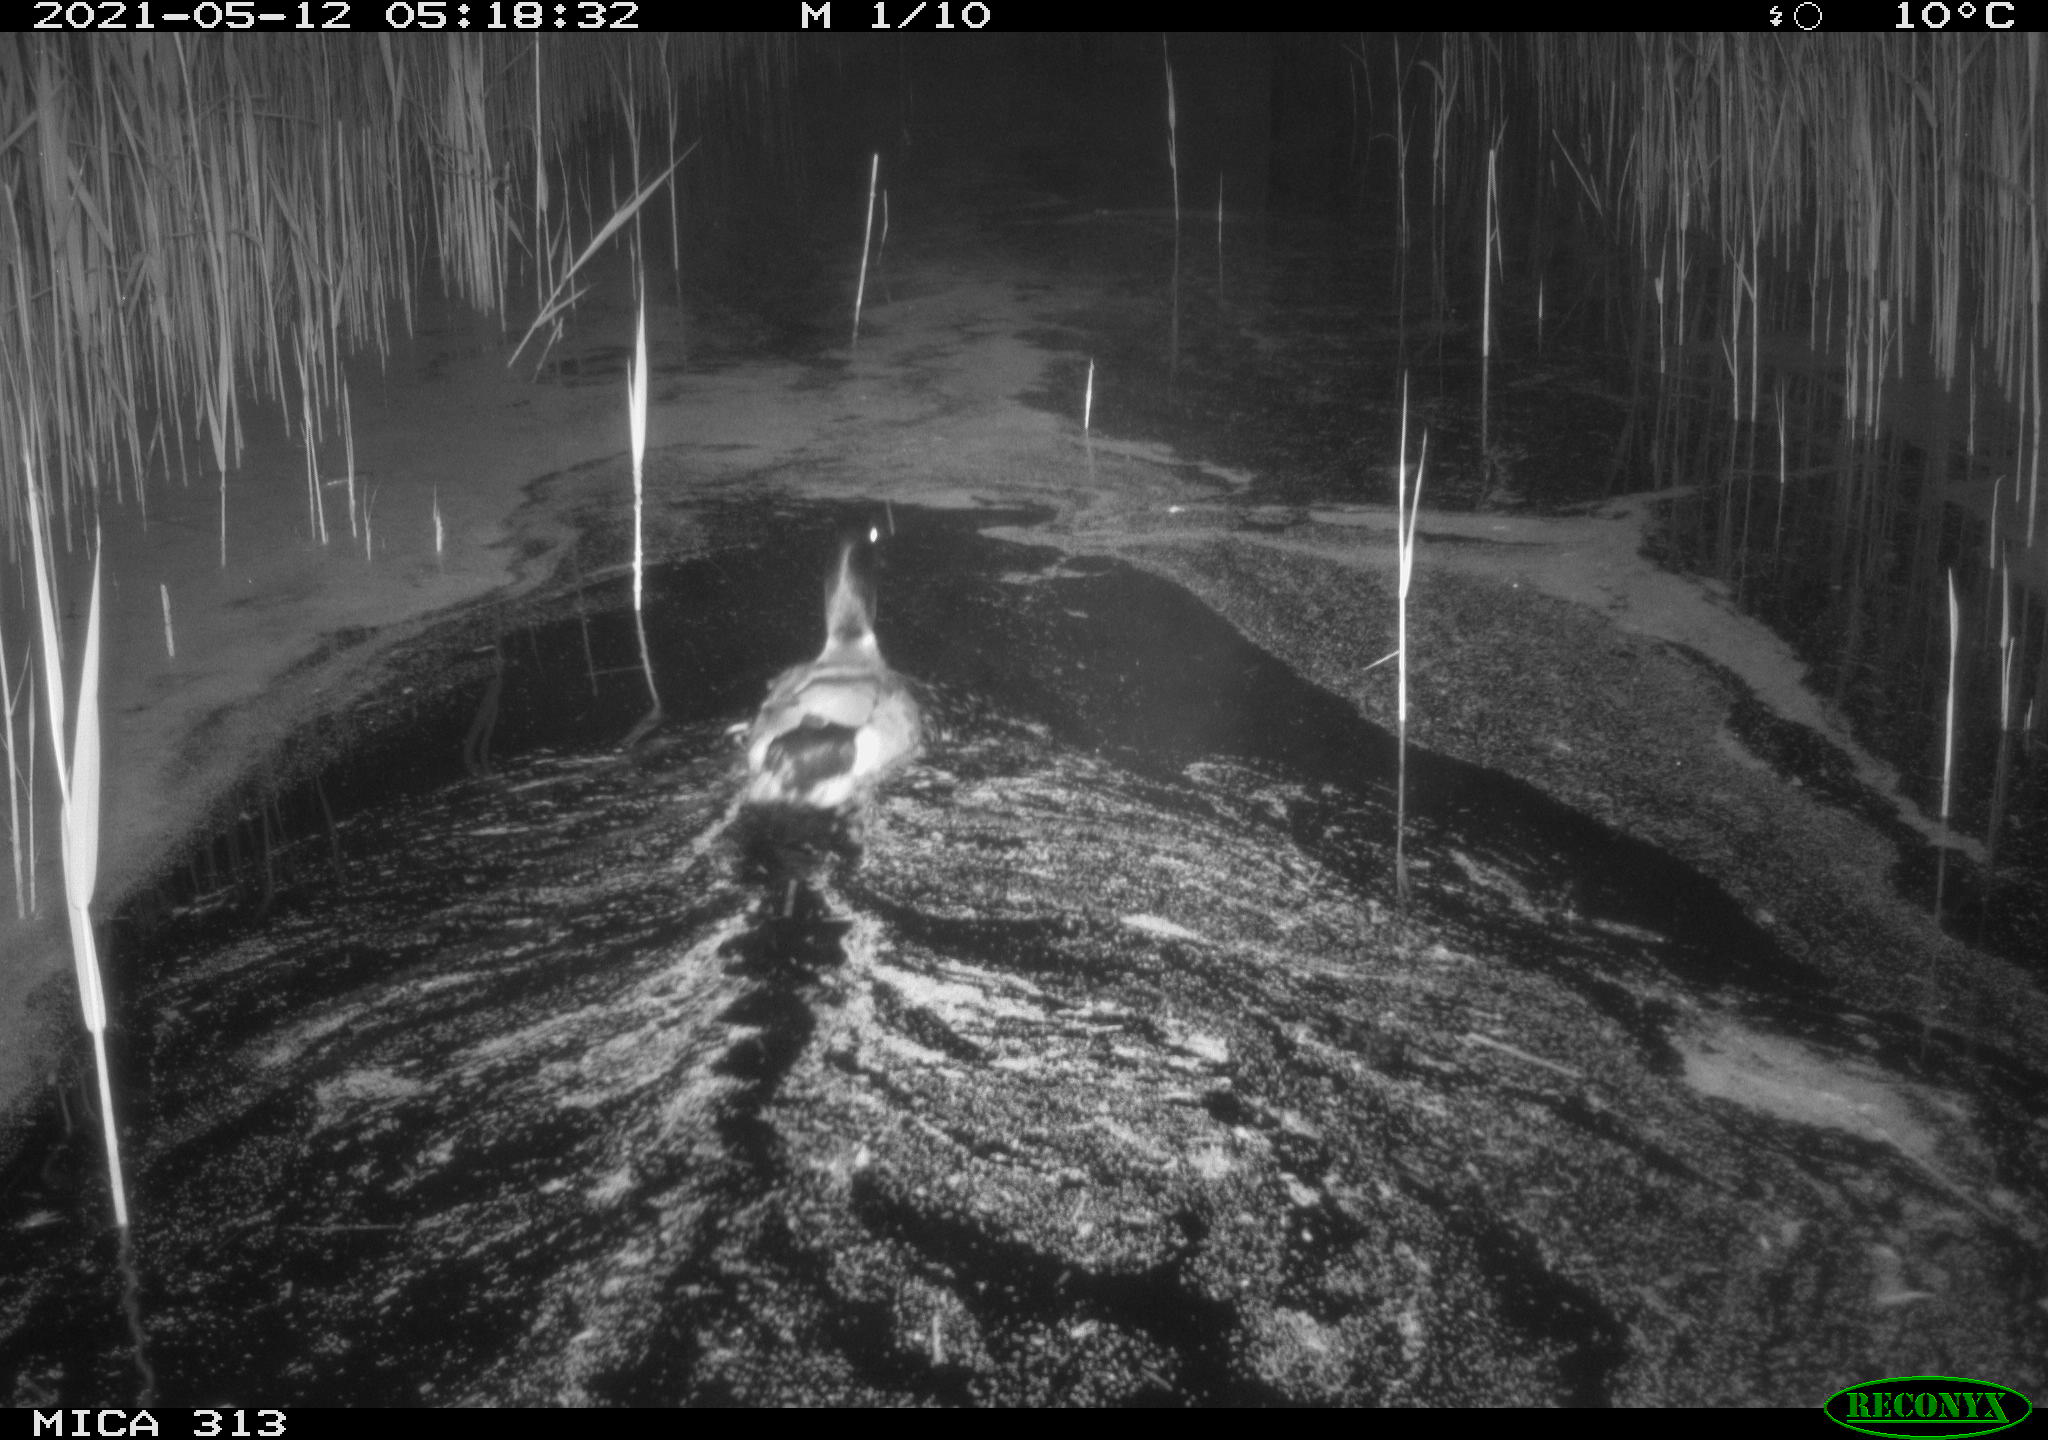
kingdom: Animalia
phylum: Chordata
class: Aves
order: Anseriformes
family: Anatidae
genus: Anas
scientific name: Anas platyrhynchos
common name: Mallard
